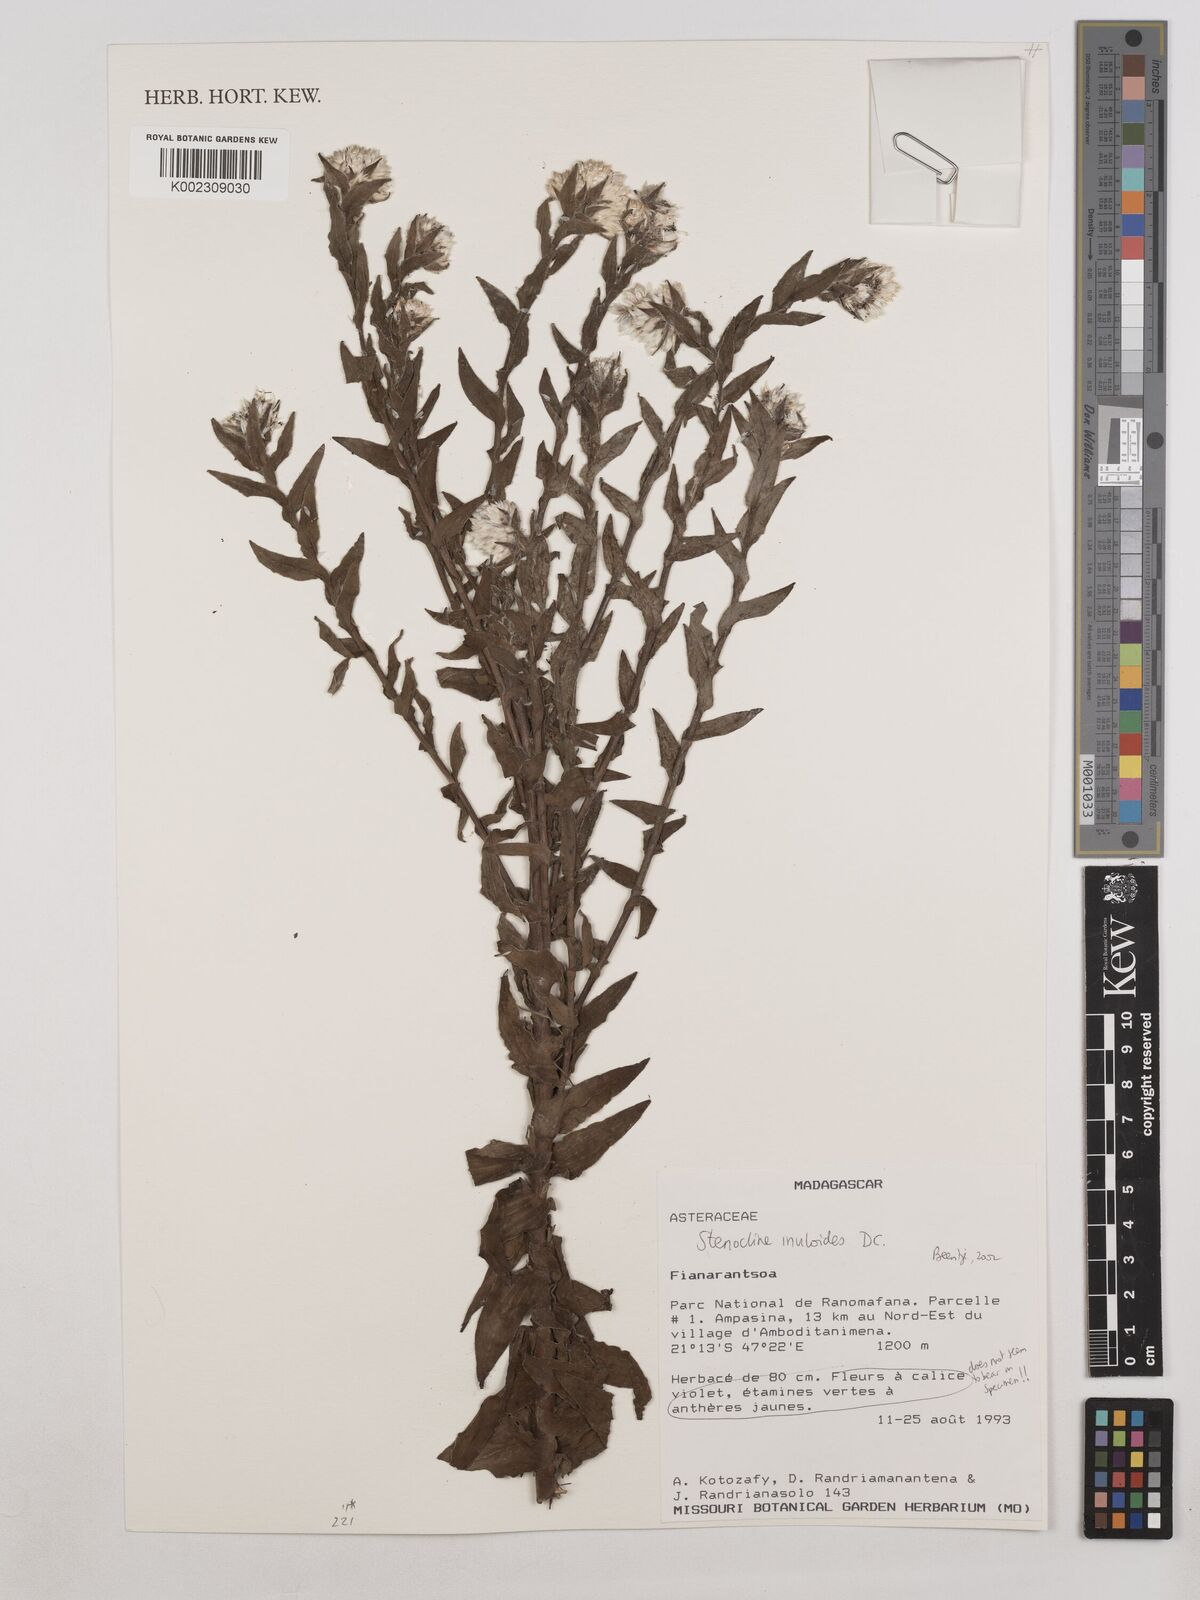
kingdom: Plantae
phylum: Tracheophyta
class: Magnoliopsida
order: Asterales
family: Asteraceae
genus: Stenocline
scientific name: Stenocline inuloides
